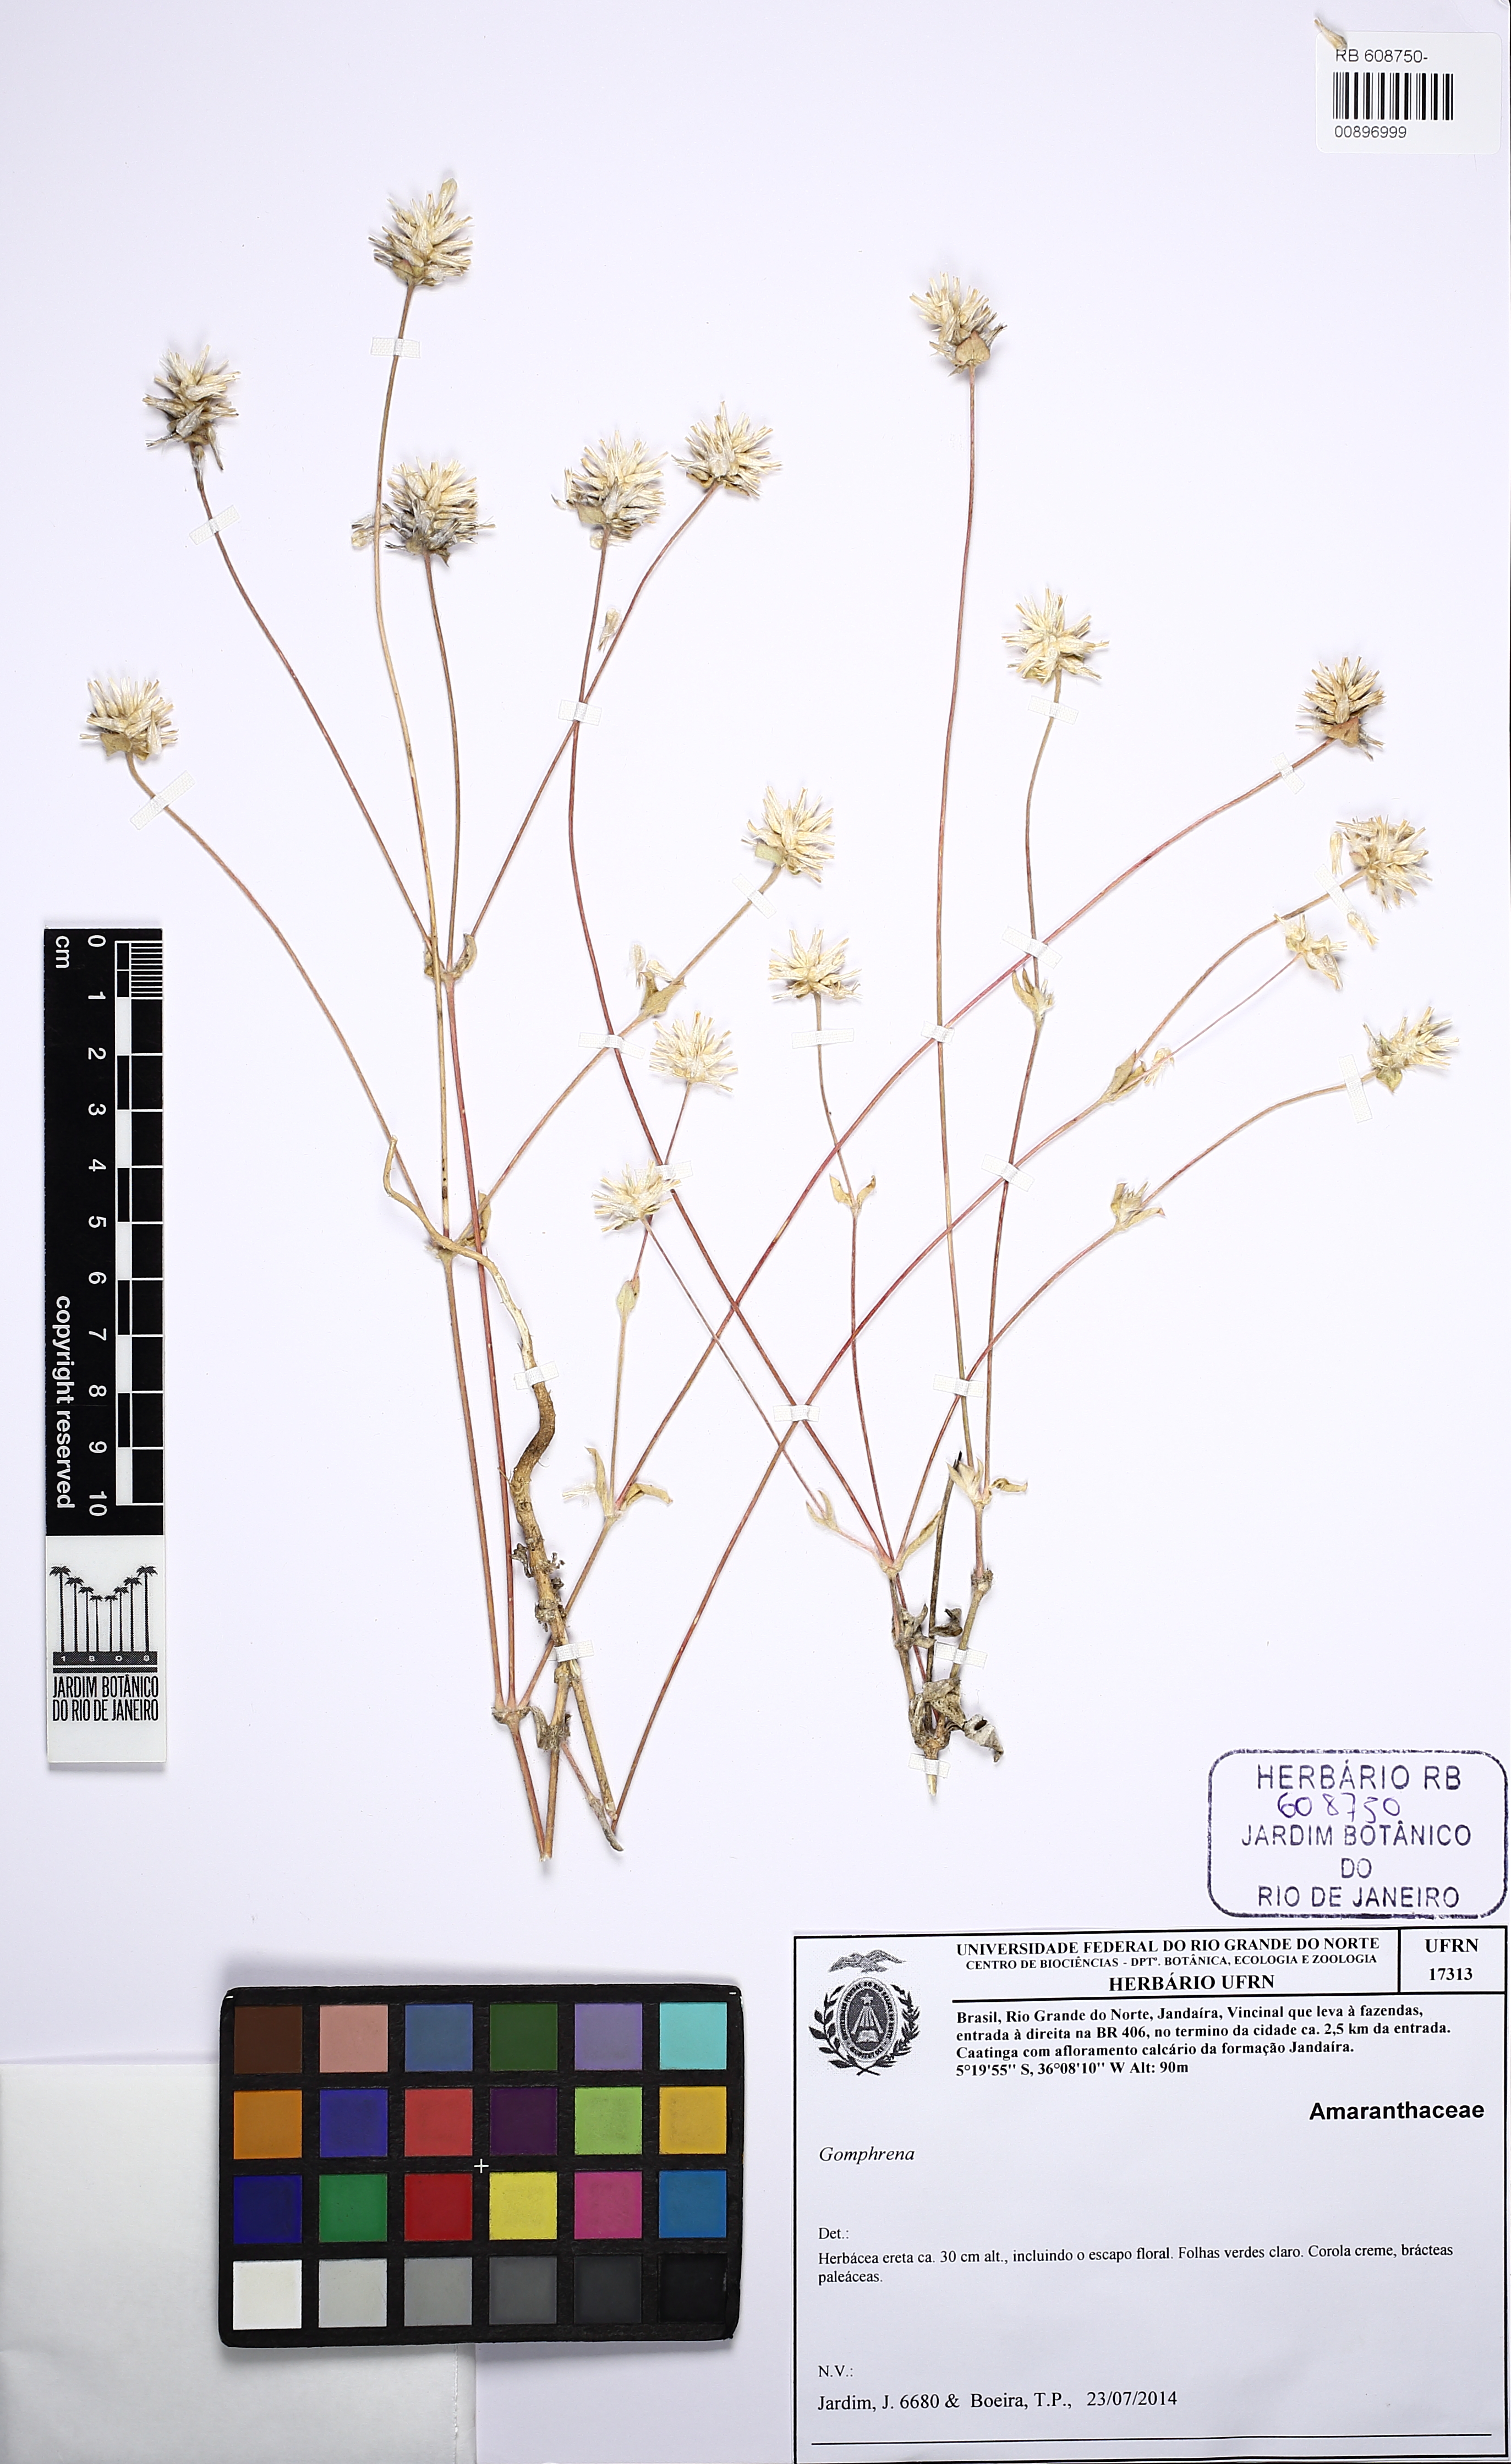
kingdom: Plantae
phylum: Tracheophyta
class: Magnoliopsida
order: Caryophyllales
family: Amaranthaceae
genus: Gomphrena
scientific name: Gomphrena
